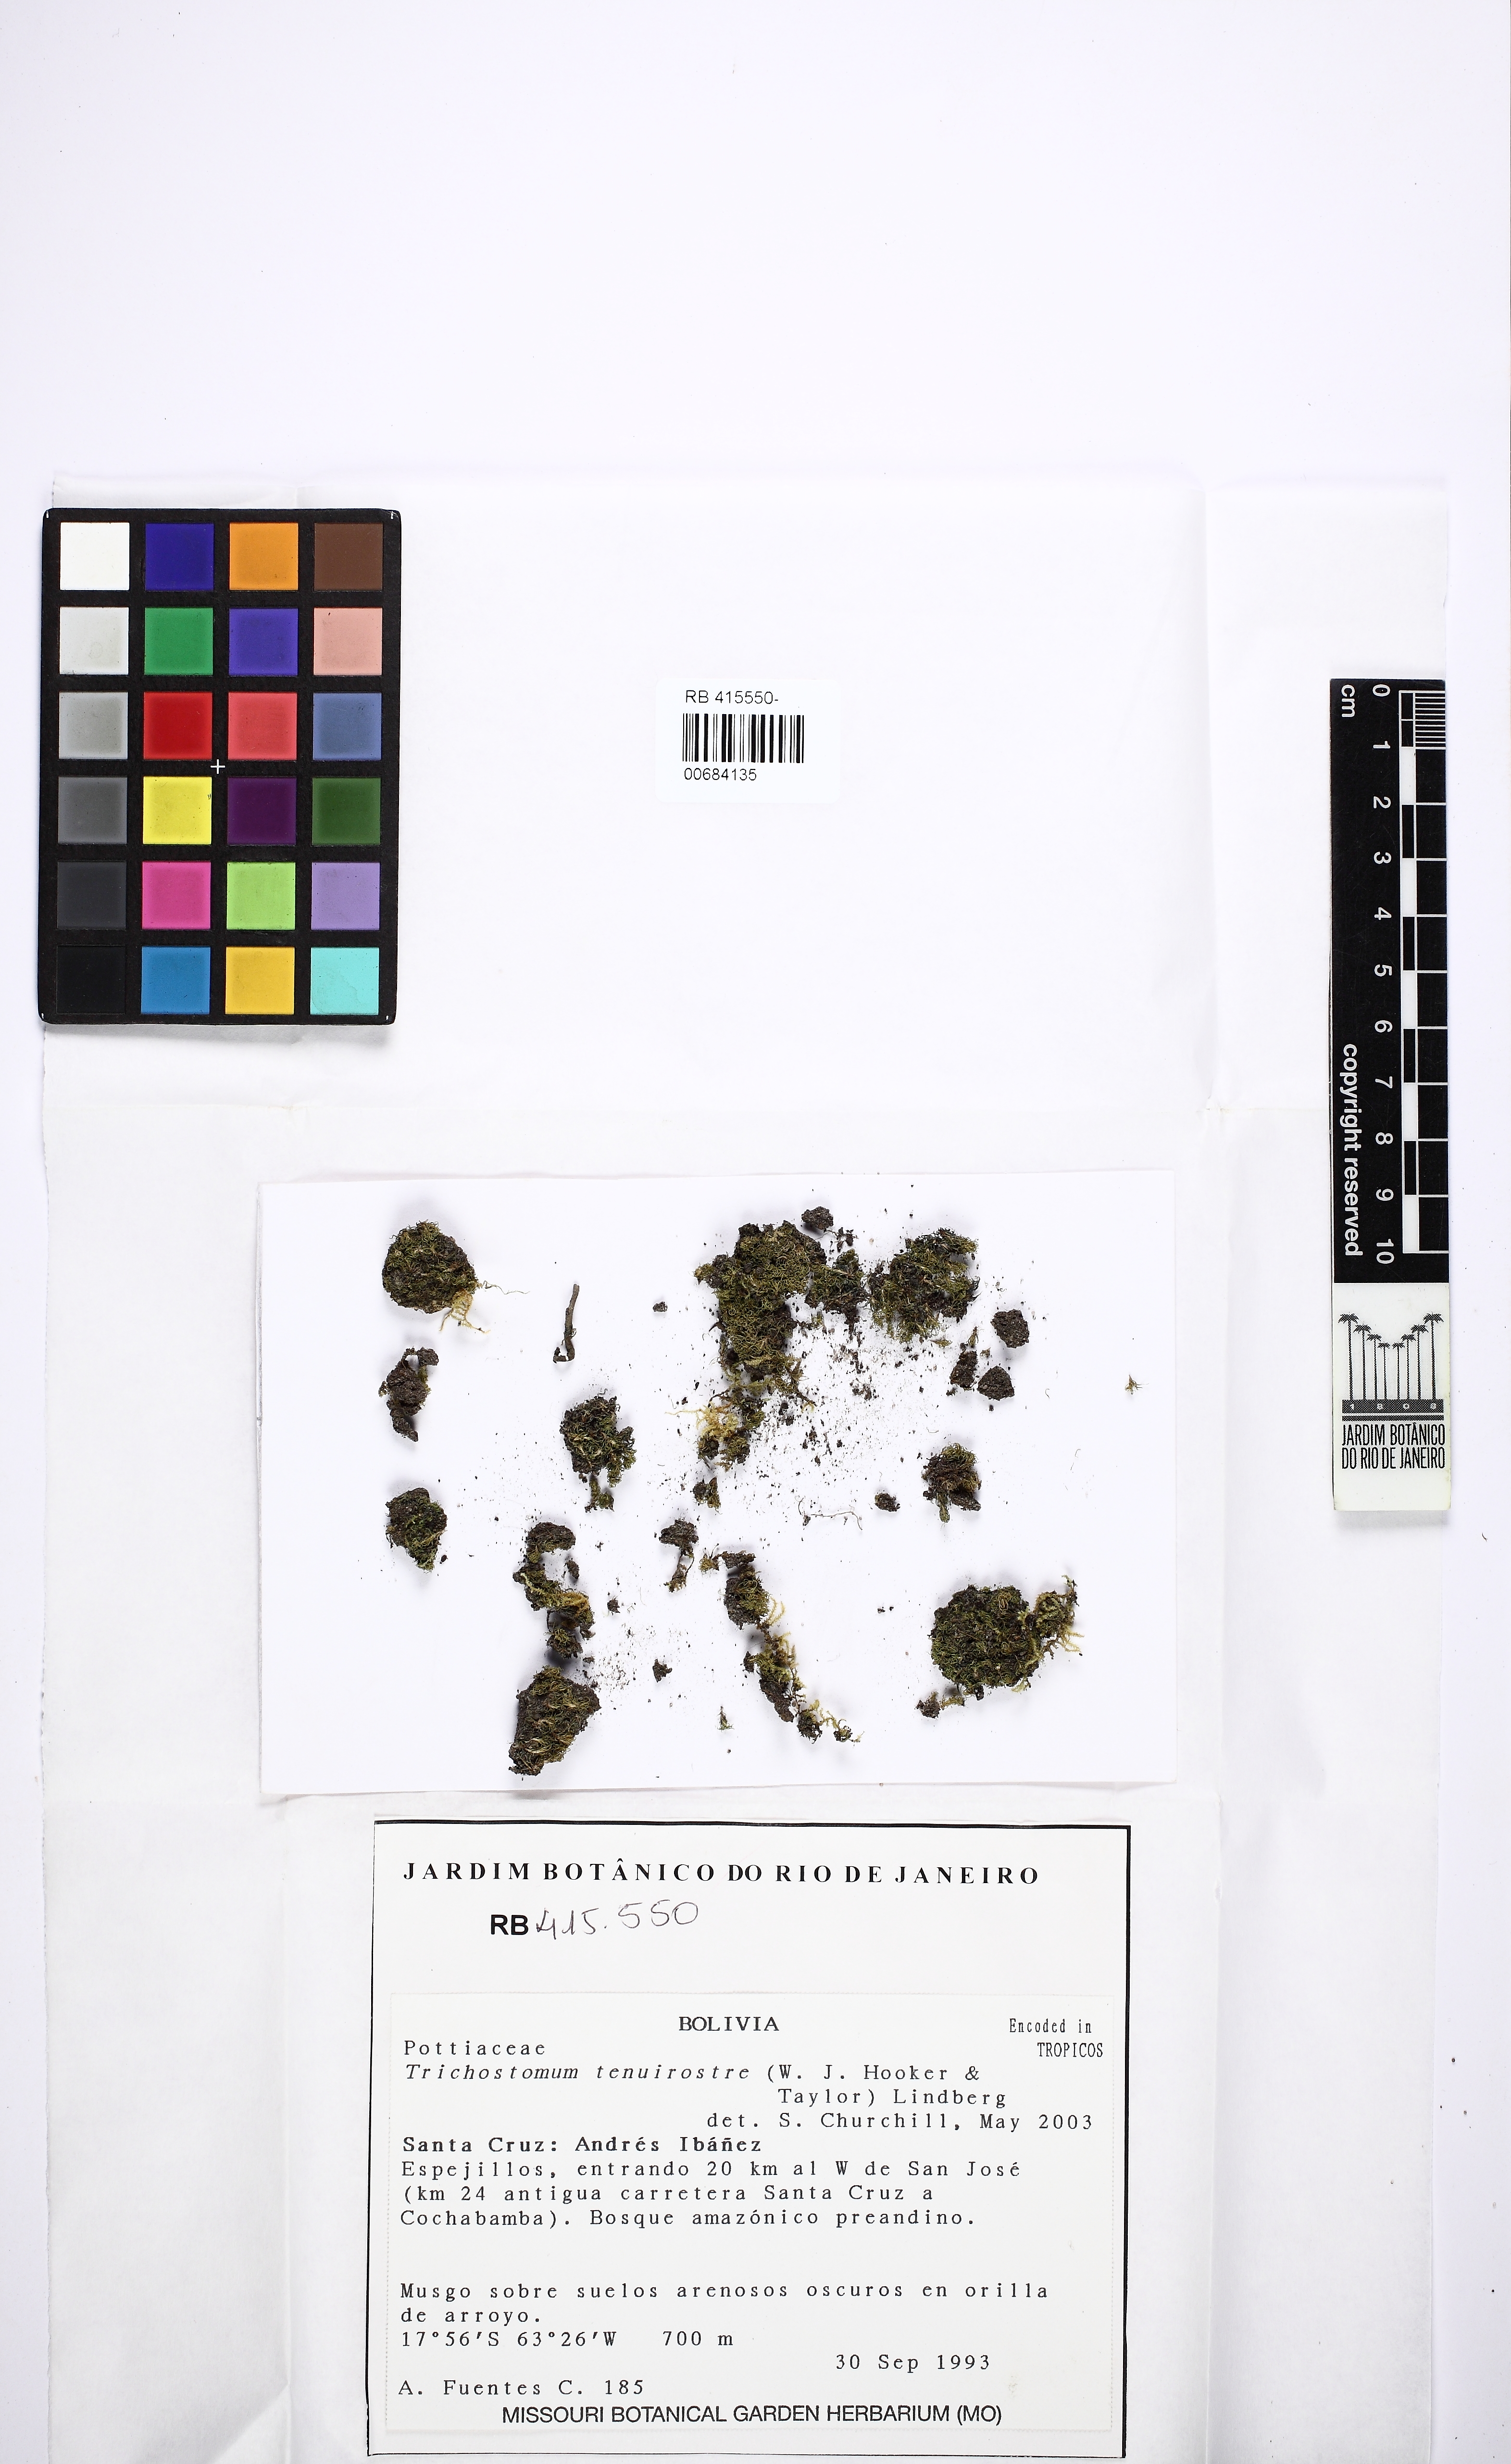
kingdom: Plantae
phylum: Bryophyta
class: Bryopsida
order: Pottiales
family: Pottiaceae
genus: Chionoloma
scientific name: Chionoloma tenuirostre
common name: Narrow-fruited crisp-moss
